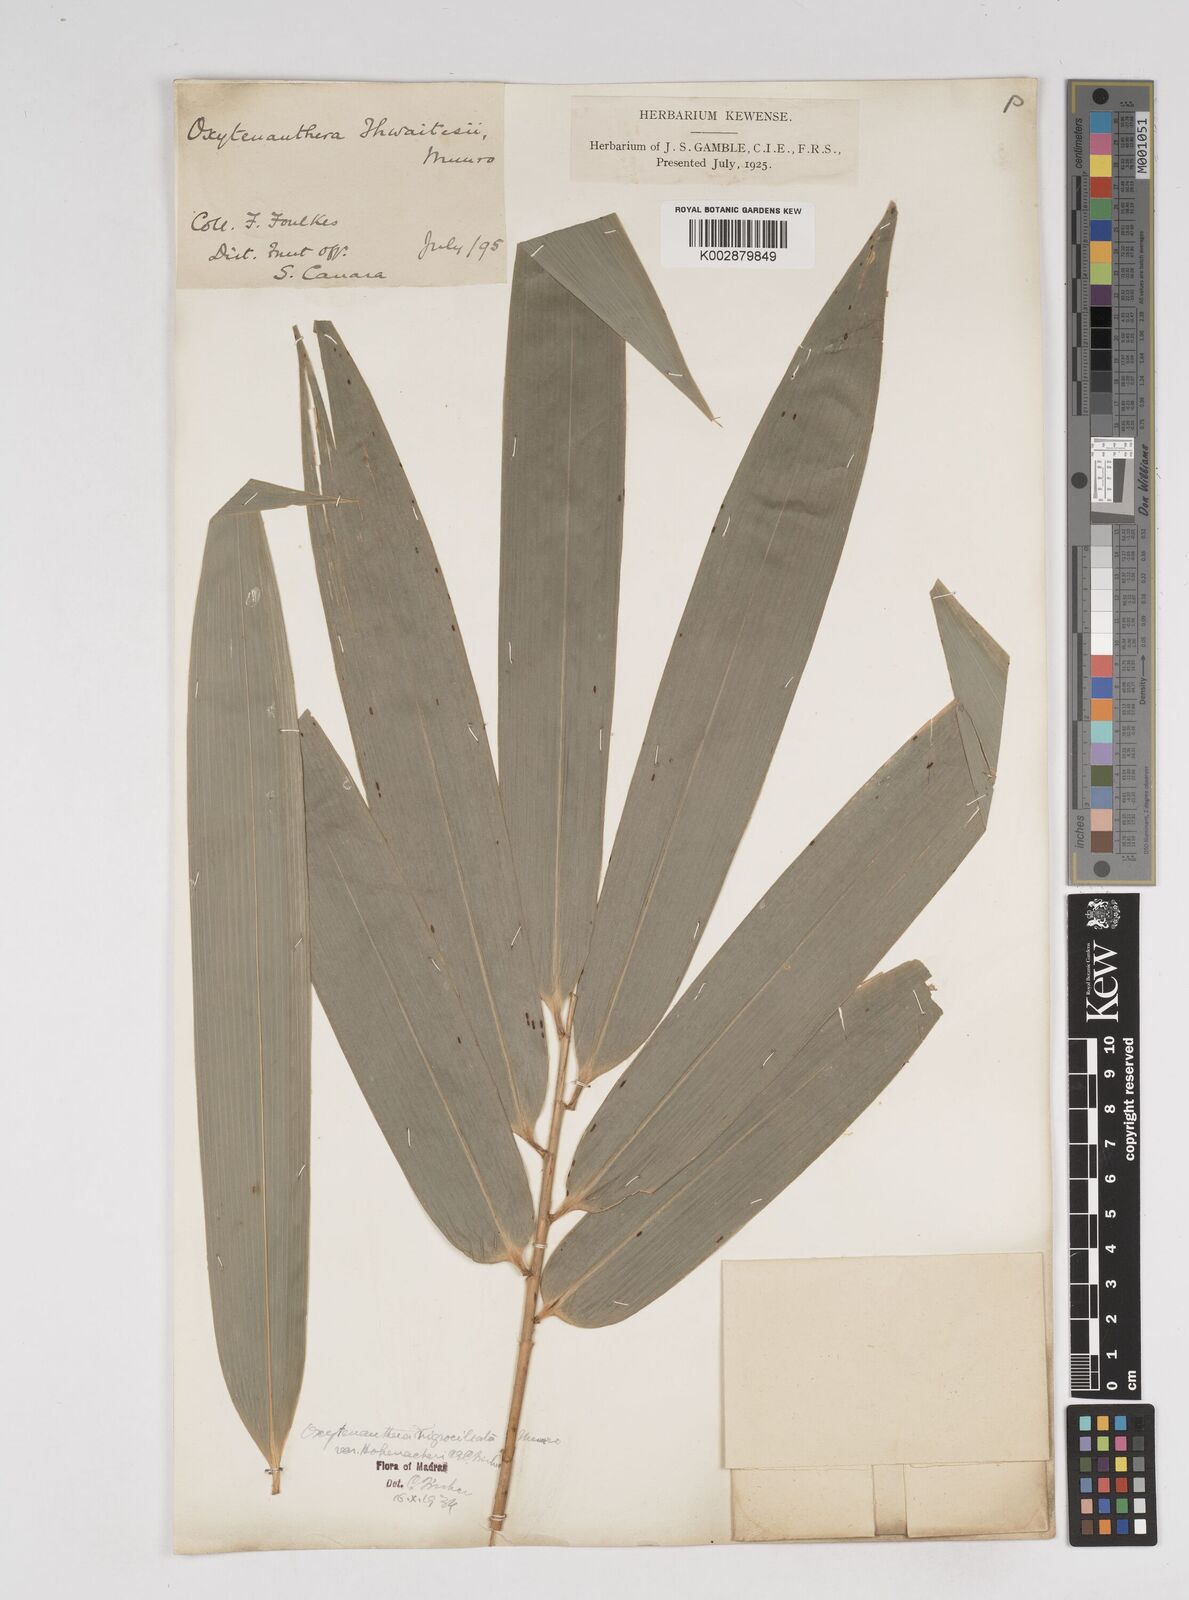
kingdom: Plantae
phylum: Tracheophyta
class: Liliopsida
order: Poales
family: Poaceae
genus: Gigantochloa
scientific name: Gigantochloa latifolia
